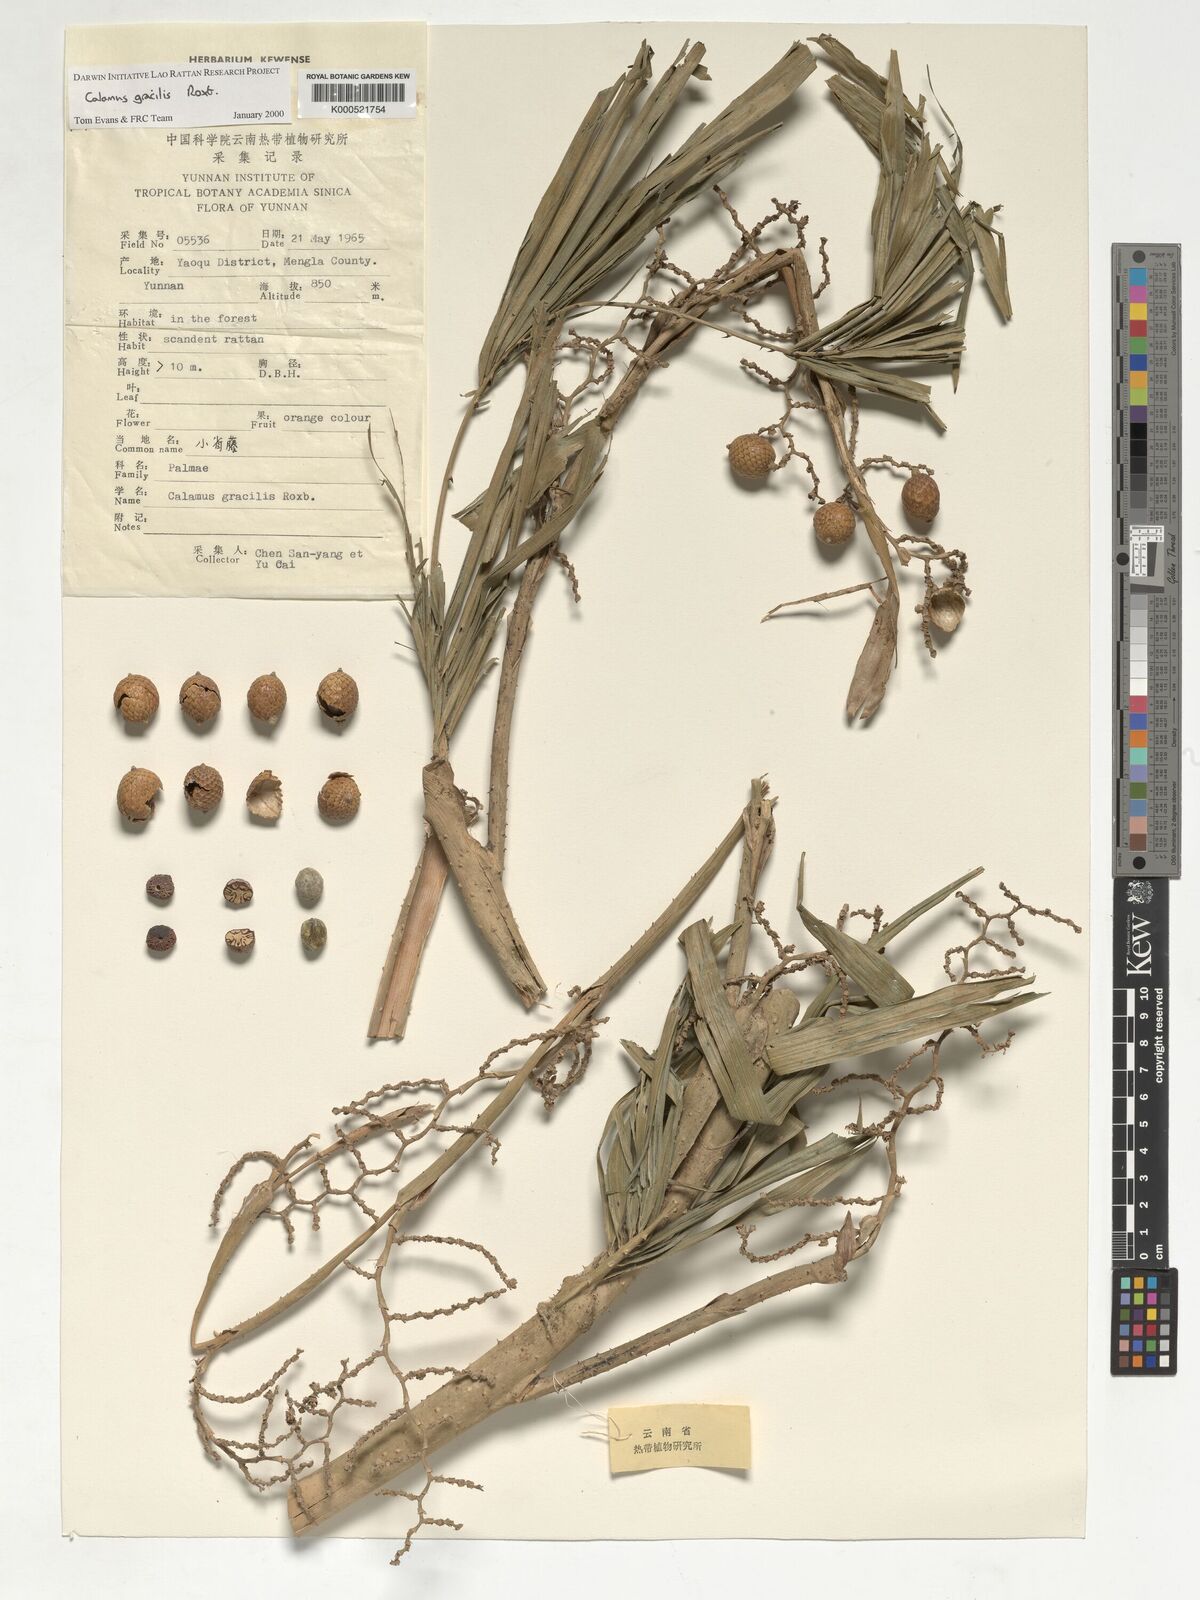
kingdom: Plantae
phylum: Tracheophyta
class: Liliopsida
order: Arecales
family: Arecaceae
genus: Calamus
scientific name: Calamus gracilis
